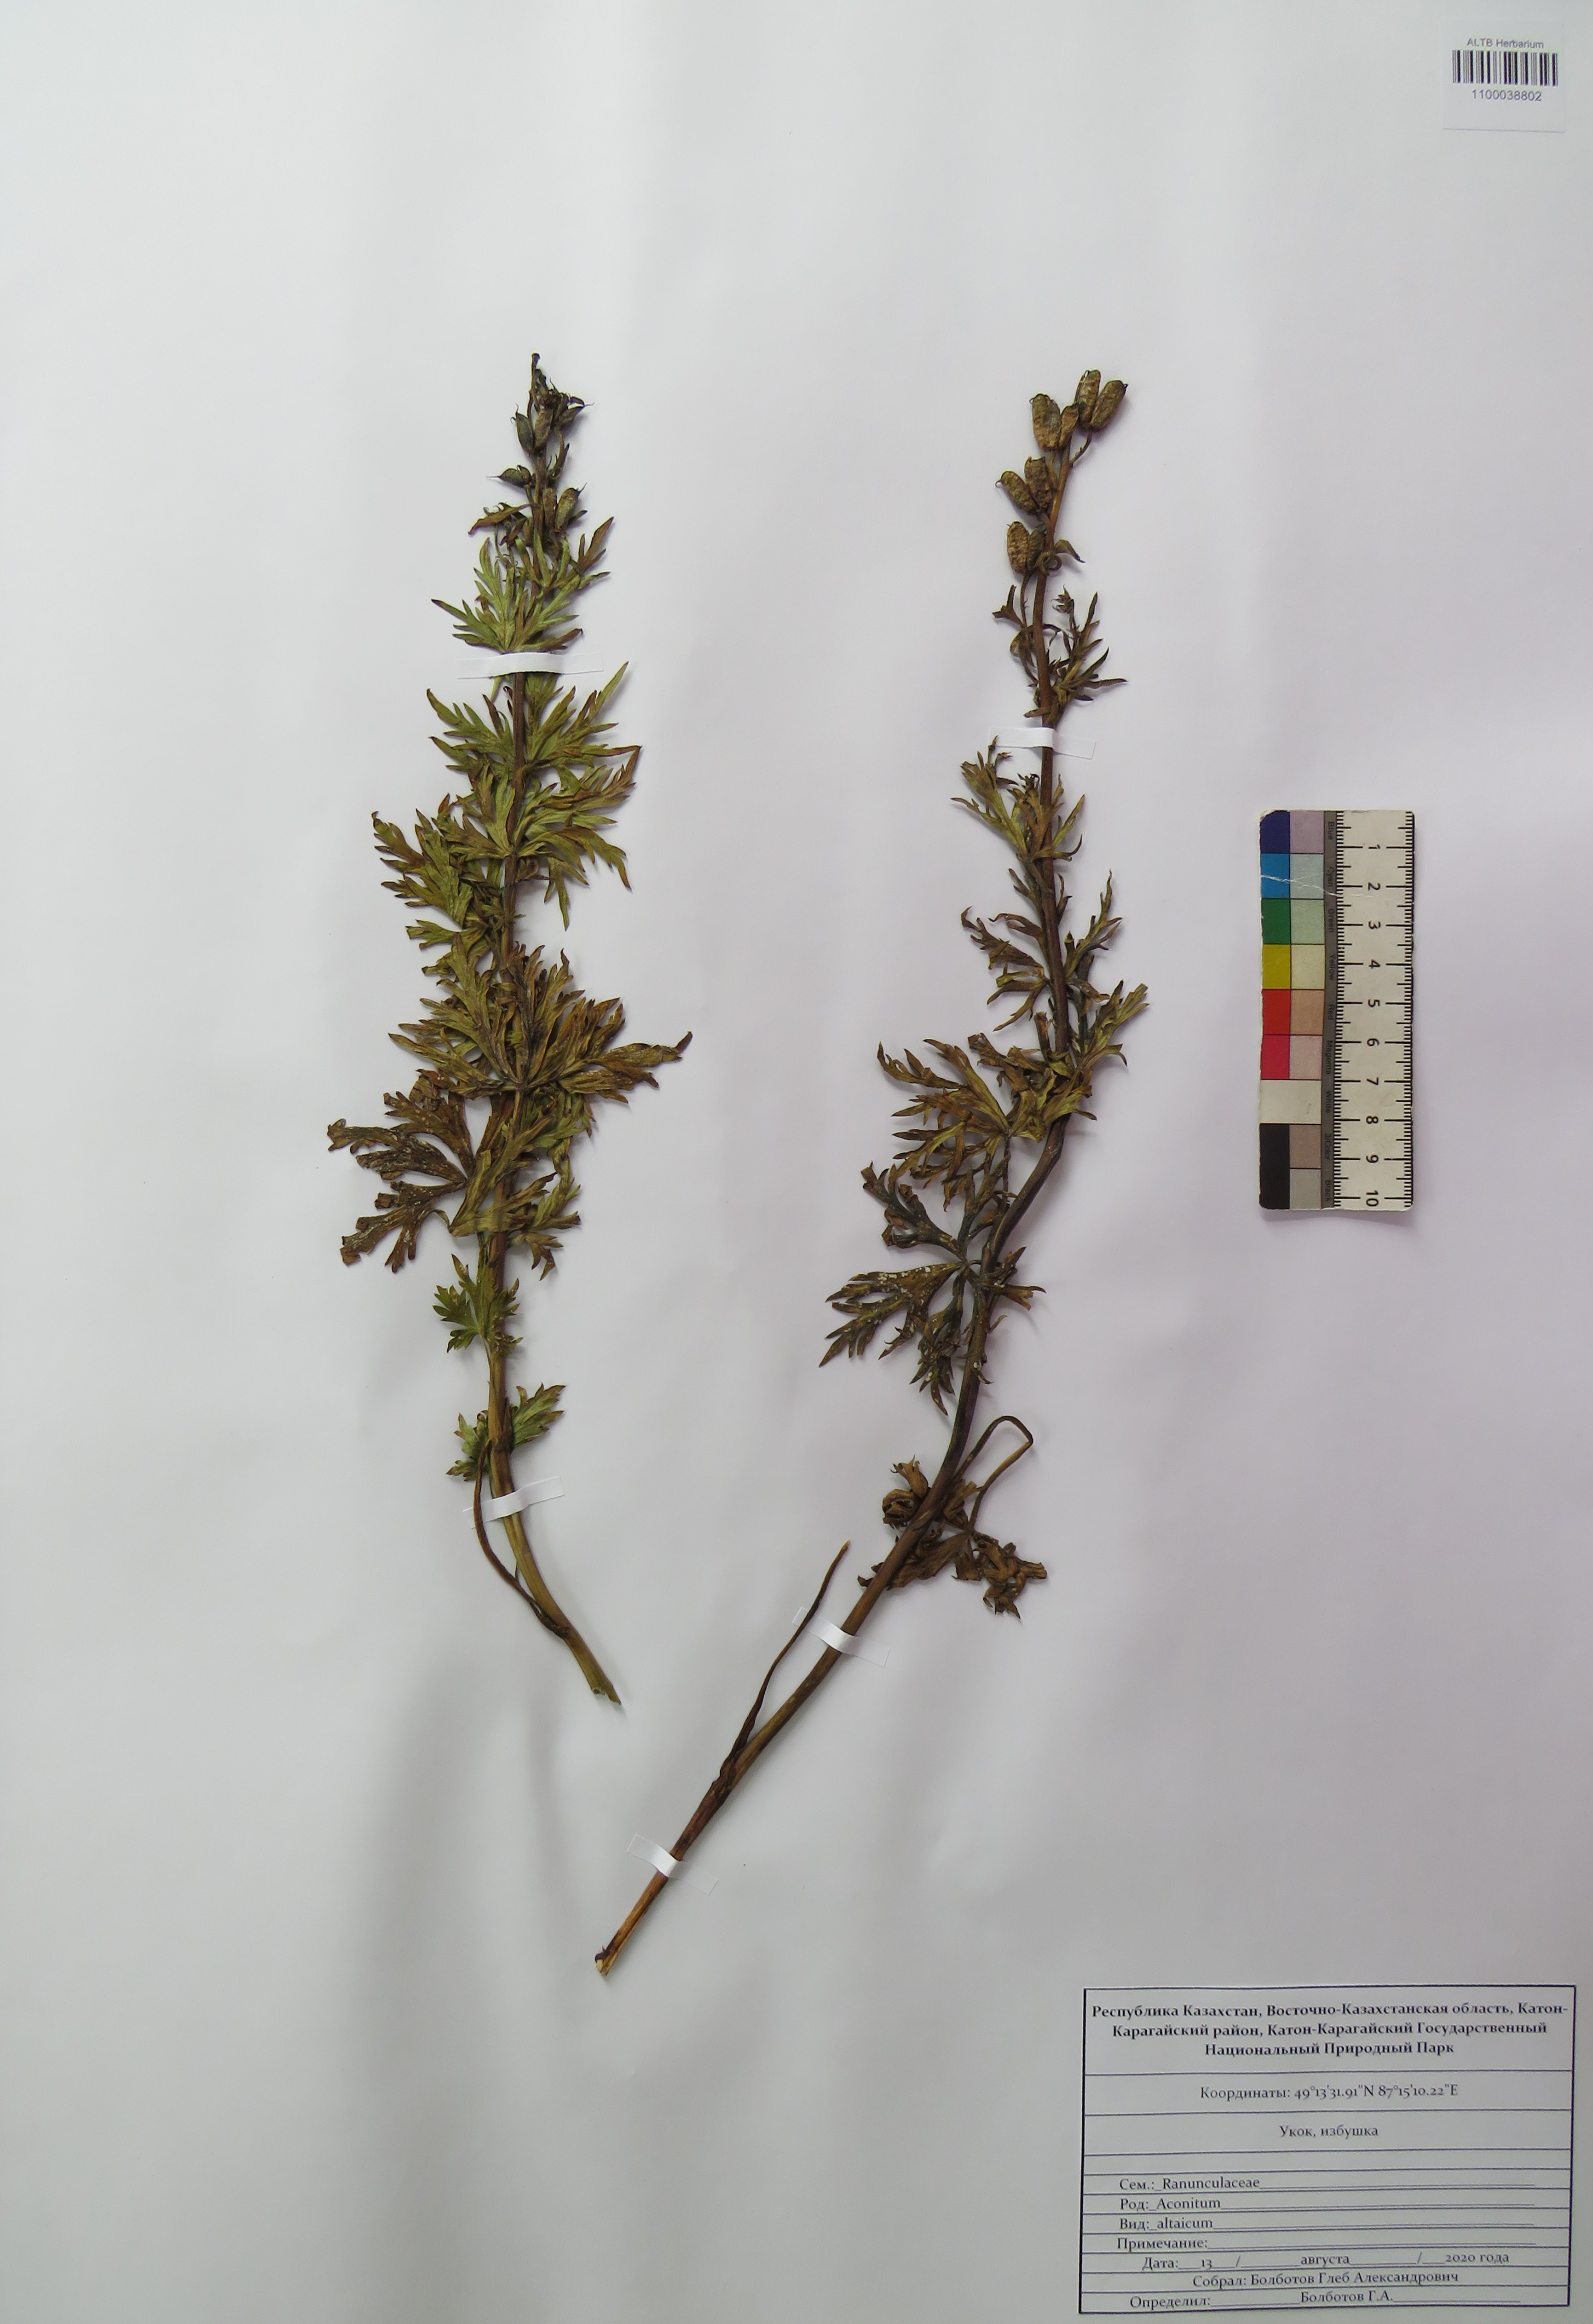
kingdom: Plantae
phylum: Tracheophyta
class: Magnoliopsida
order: Ranunculales
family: Ranunculaceae
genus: Aconitum
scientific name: Aconitum glandulosum
